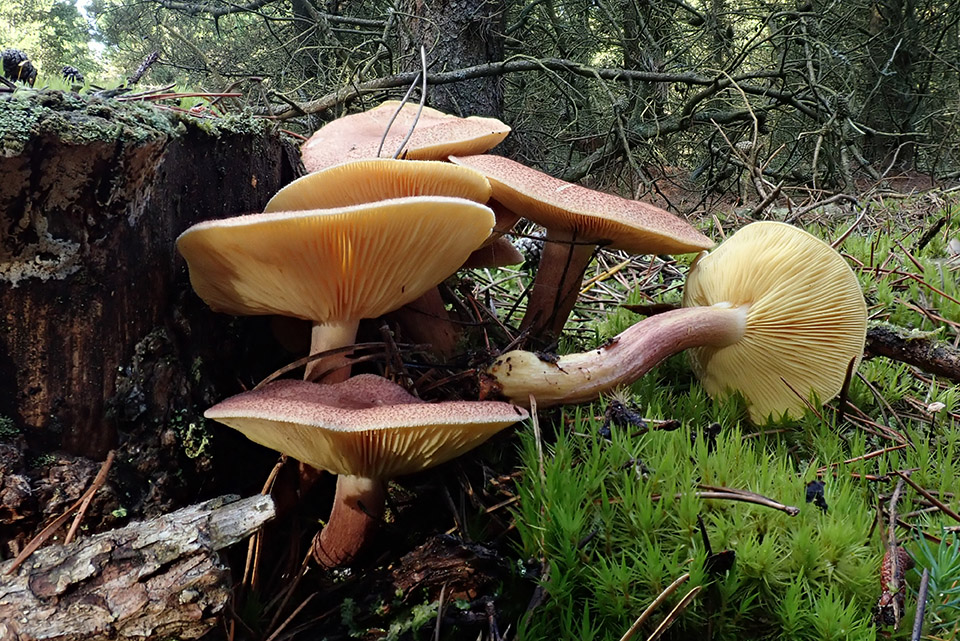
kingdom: Fungi
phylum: Basidiomycota
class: Agaricomycetes
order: Agaricales
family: Tricholomataceae
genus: Tricholomopsis
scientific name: Tricholomopsis rutilans
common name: purpur-væbnerhat
